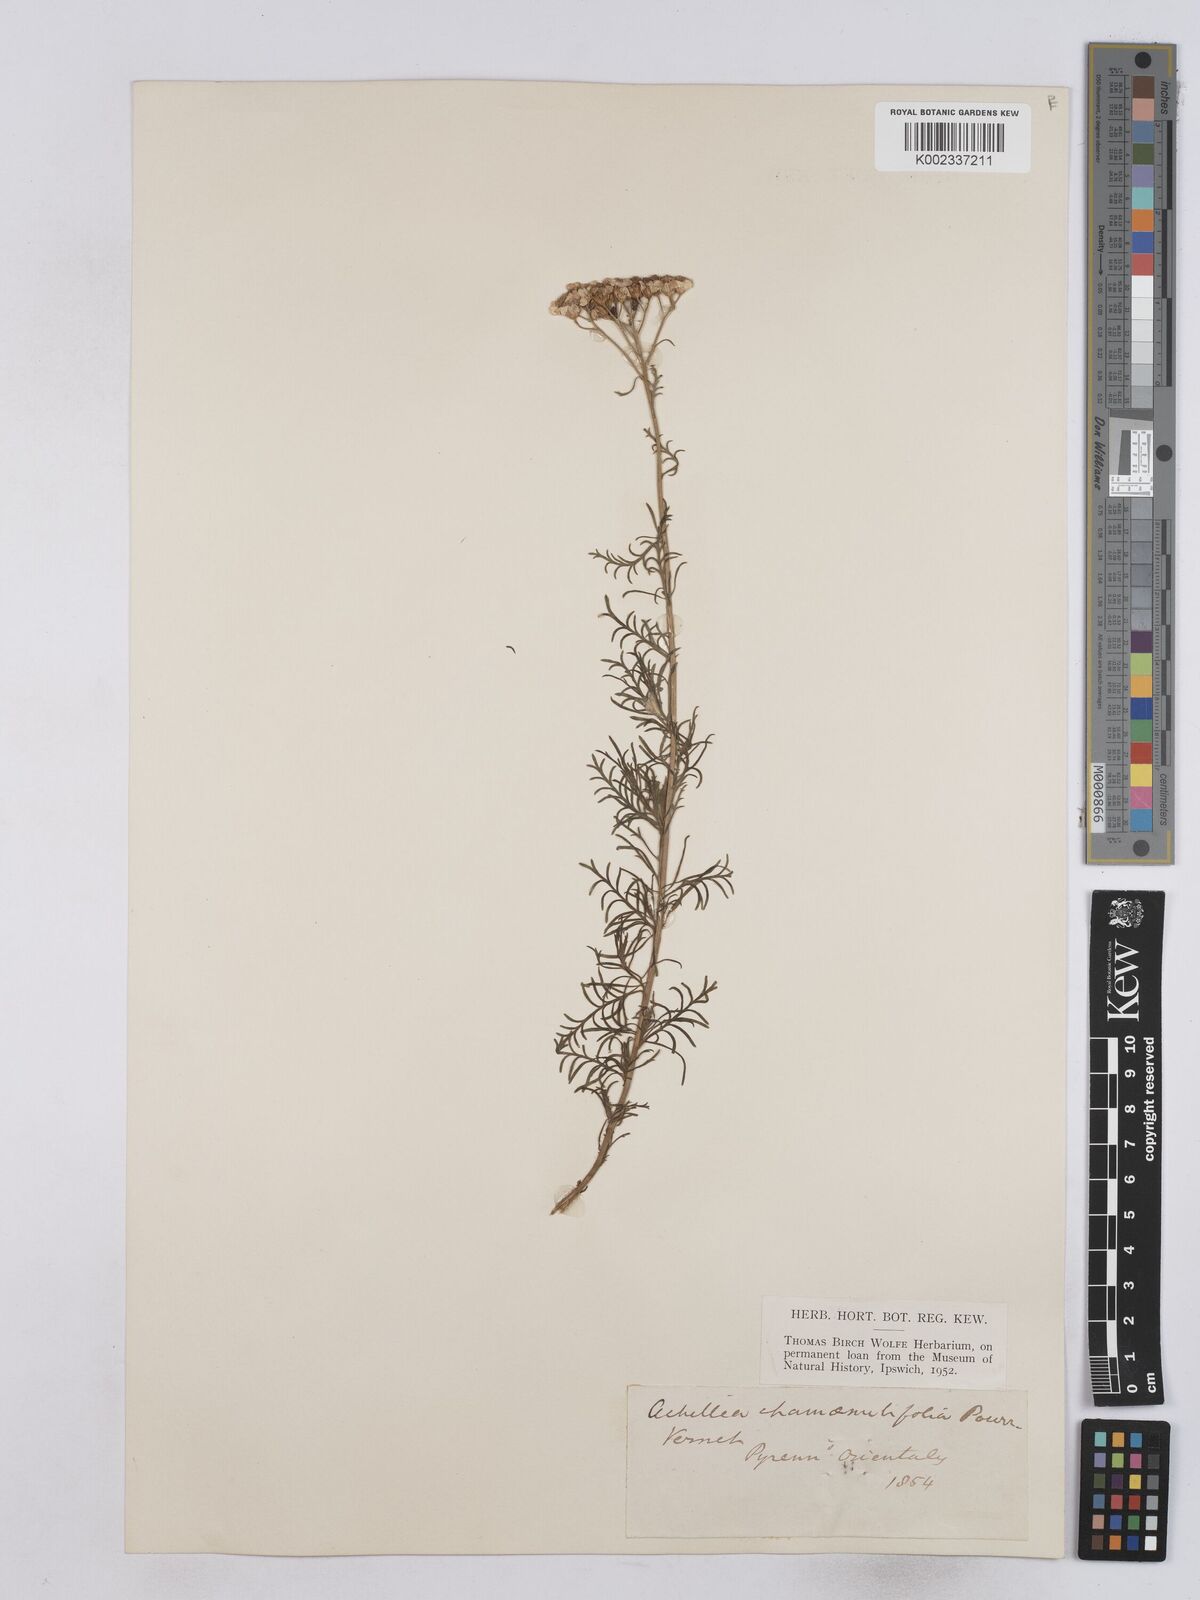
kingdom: Plantae
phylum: Tracheophyta
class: Magnoliopsida
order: Asterales
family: Asteraceae
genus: Achillea
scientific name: Achillea chamaemelifolia
